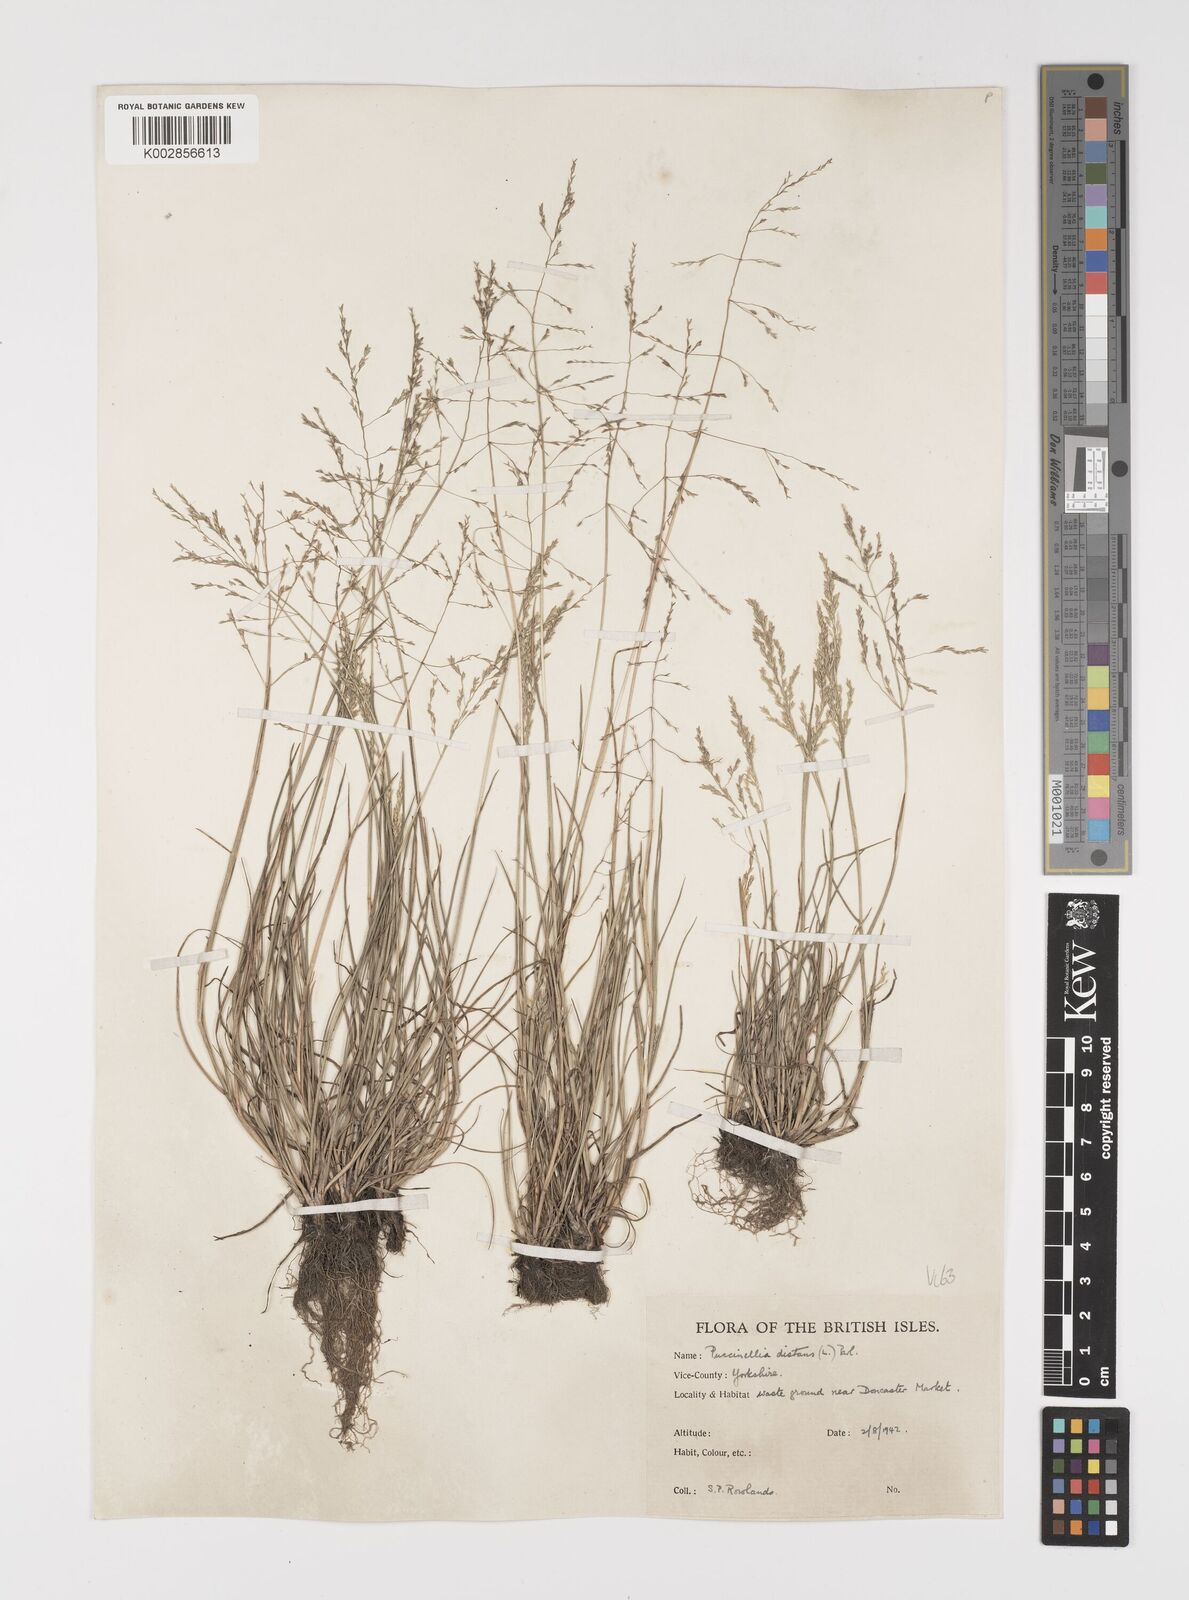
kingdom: Plantae
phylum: Tracheophyta
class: Liliopsida
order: Poales
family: Poaceae
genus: Puccinellia
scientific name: Puccinellia distans
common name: Weeping alkaligrass
